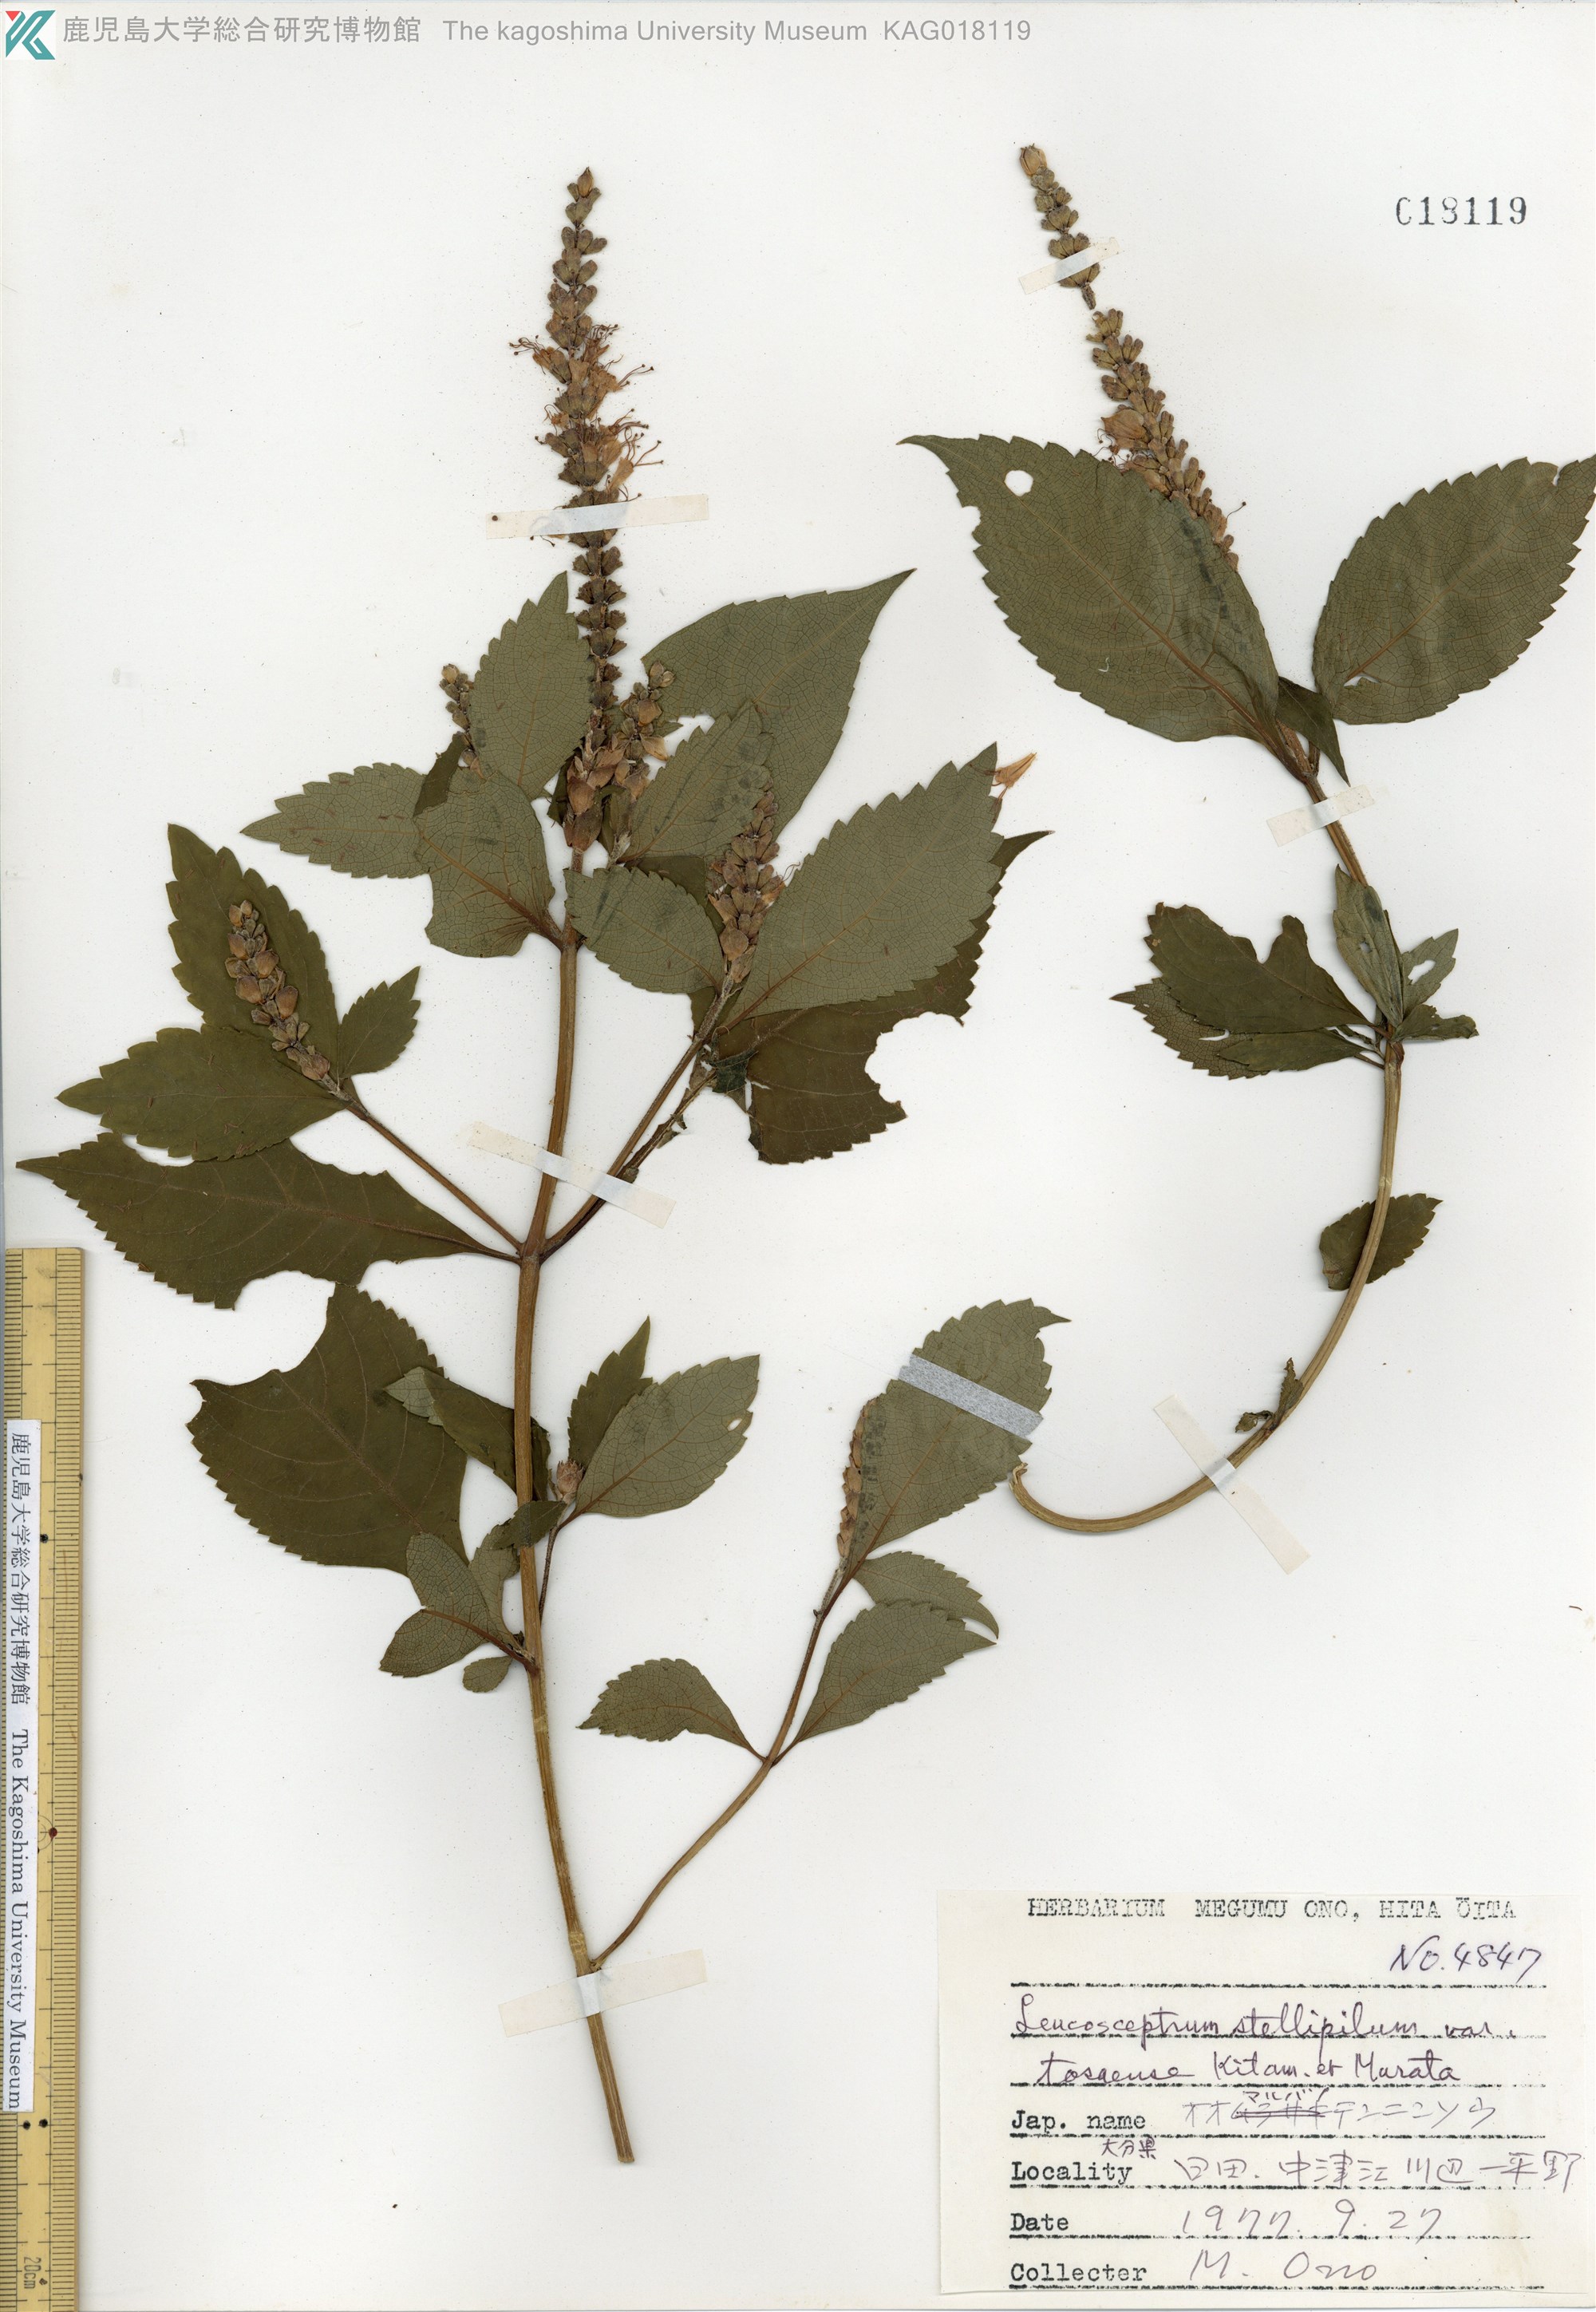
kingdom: Plantae
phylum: Tracheophyta
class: Magnoliopsida
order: Lamiales
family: Lamiaceae
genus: Comanthosphace
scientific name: Comanthosphace japonica
